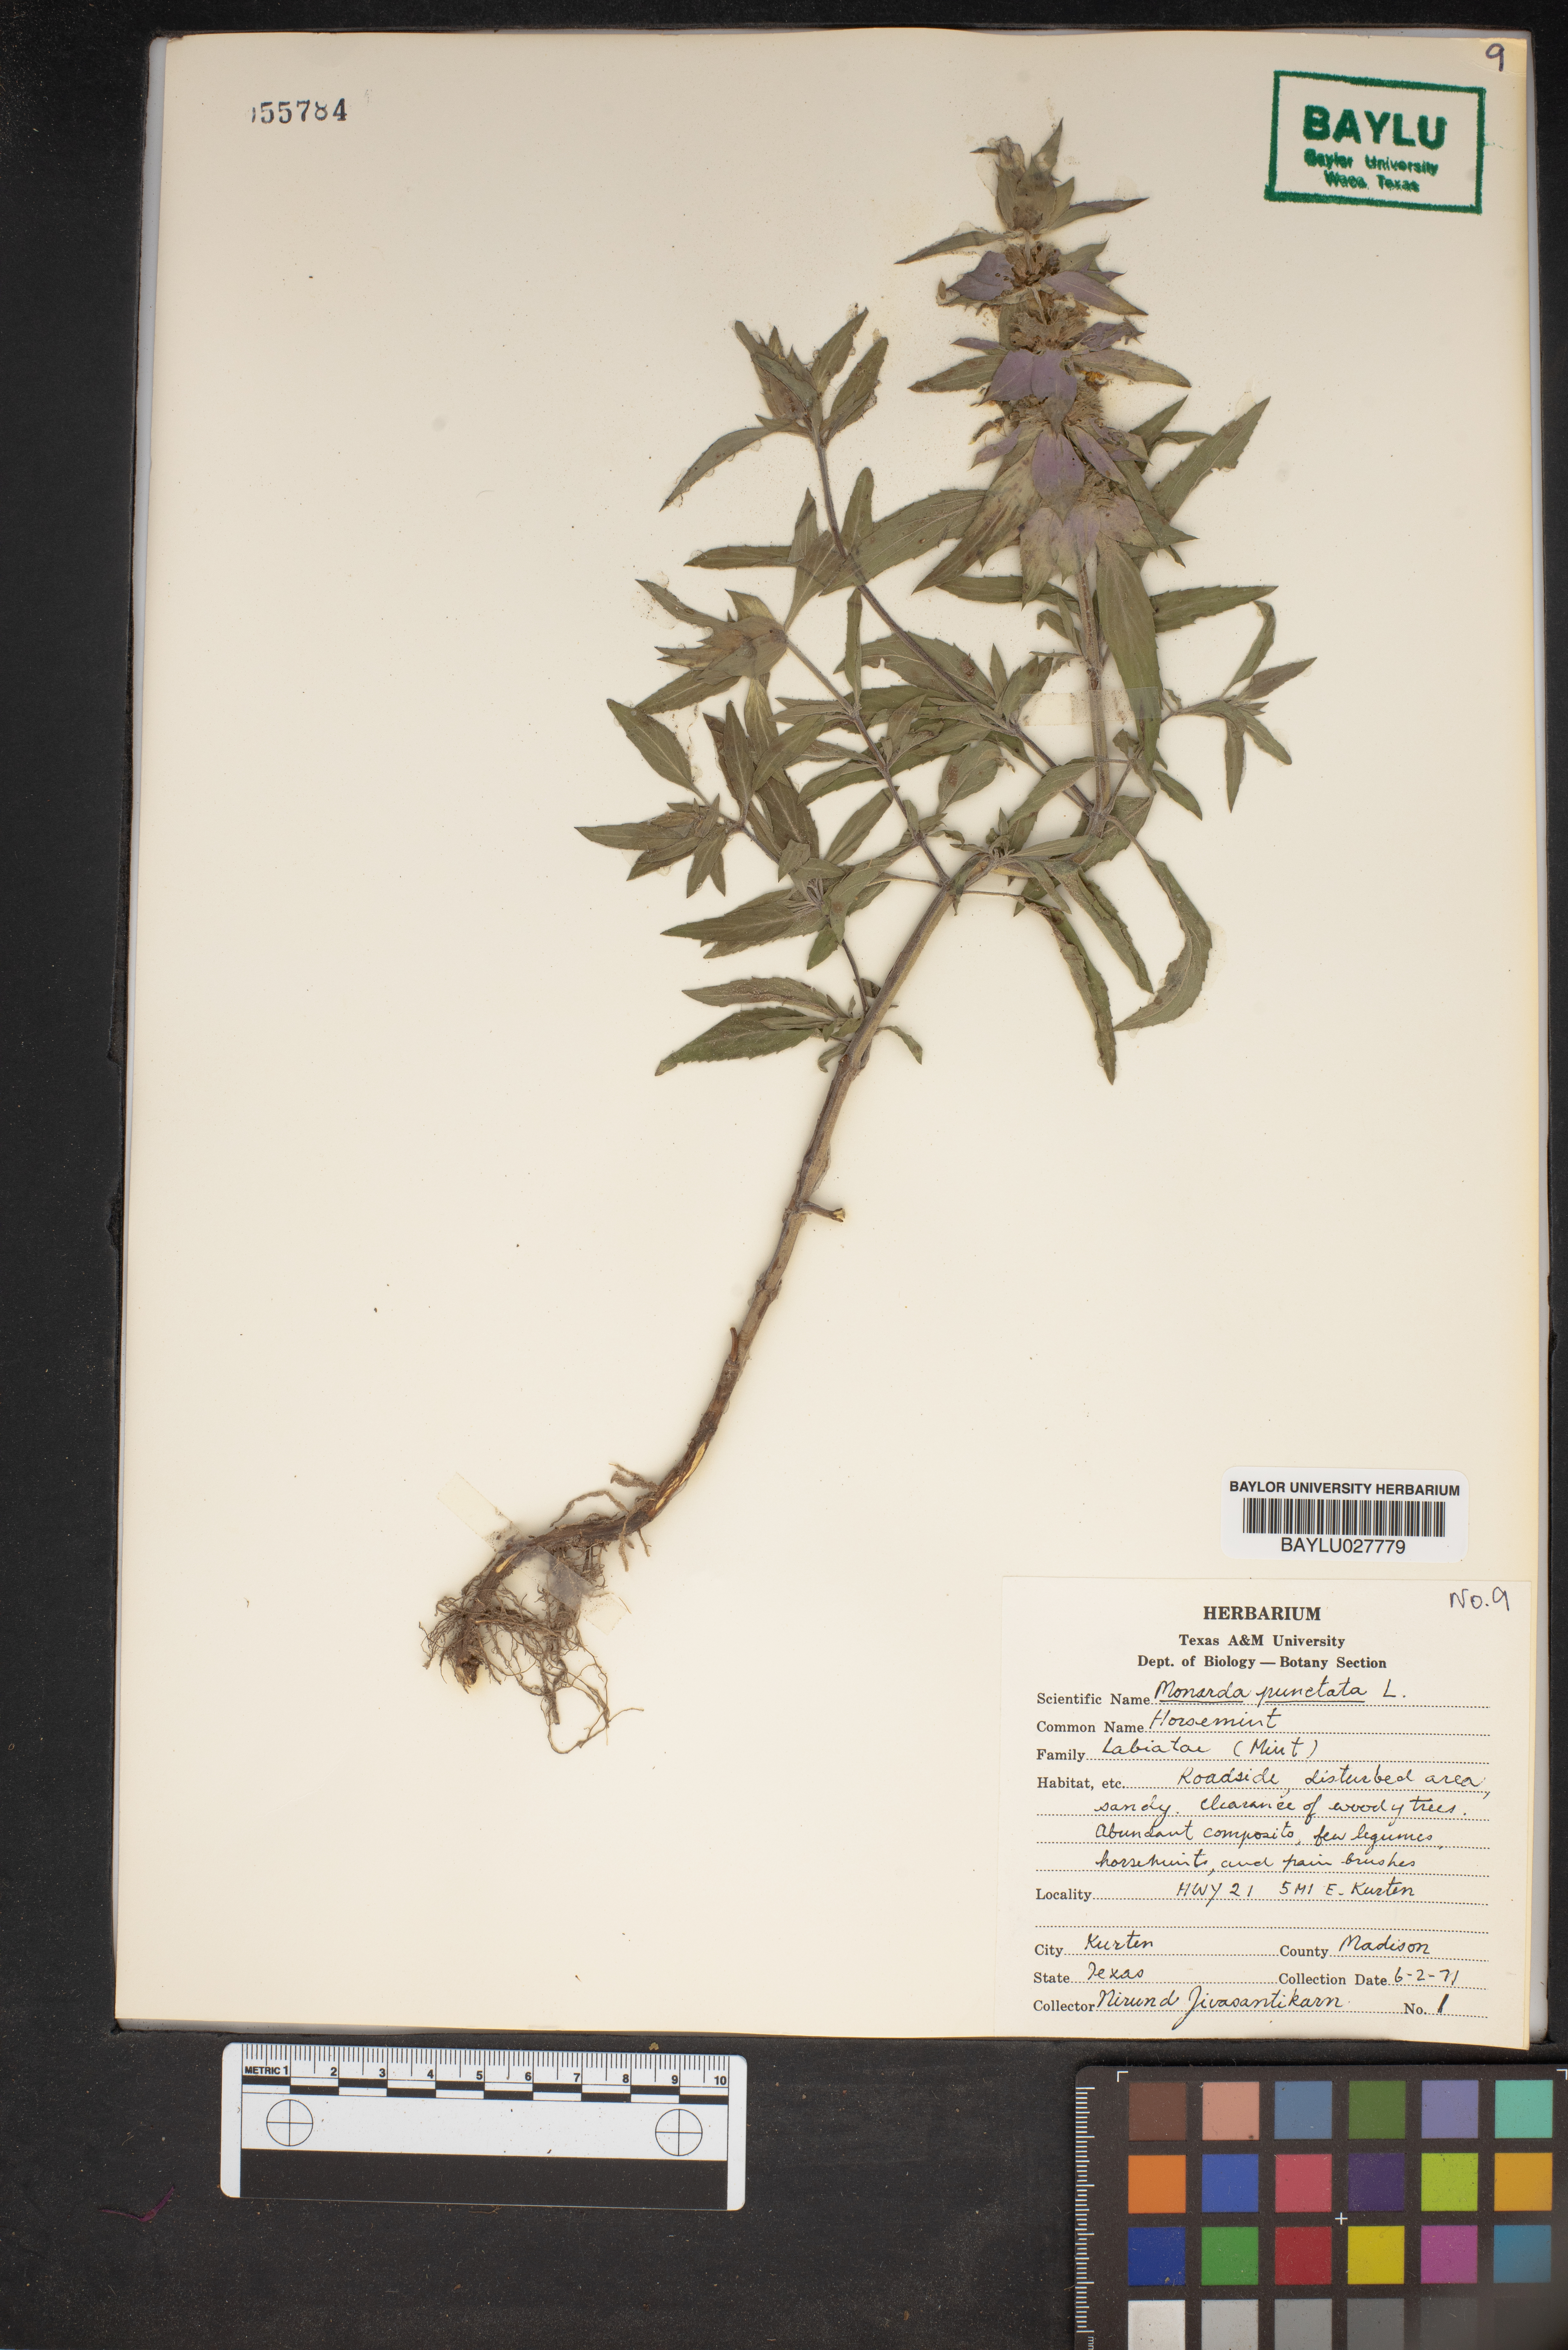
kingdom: Plantae
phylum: Tracheophyta
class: Magnoliopsida
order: Lamiales
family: Lamiaceae
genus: Monarda
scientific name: Monarda punctata
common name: Dotted monarda
